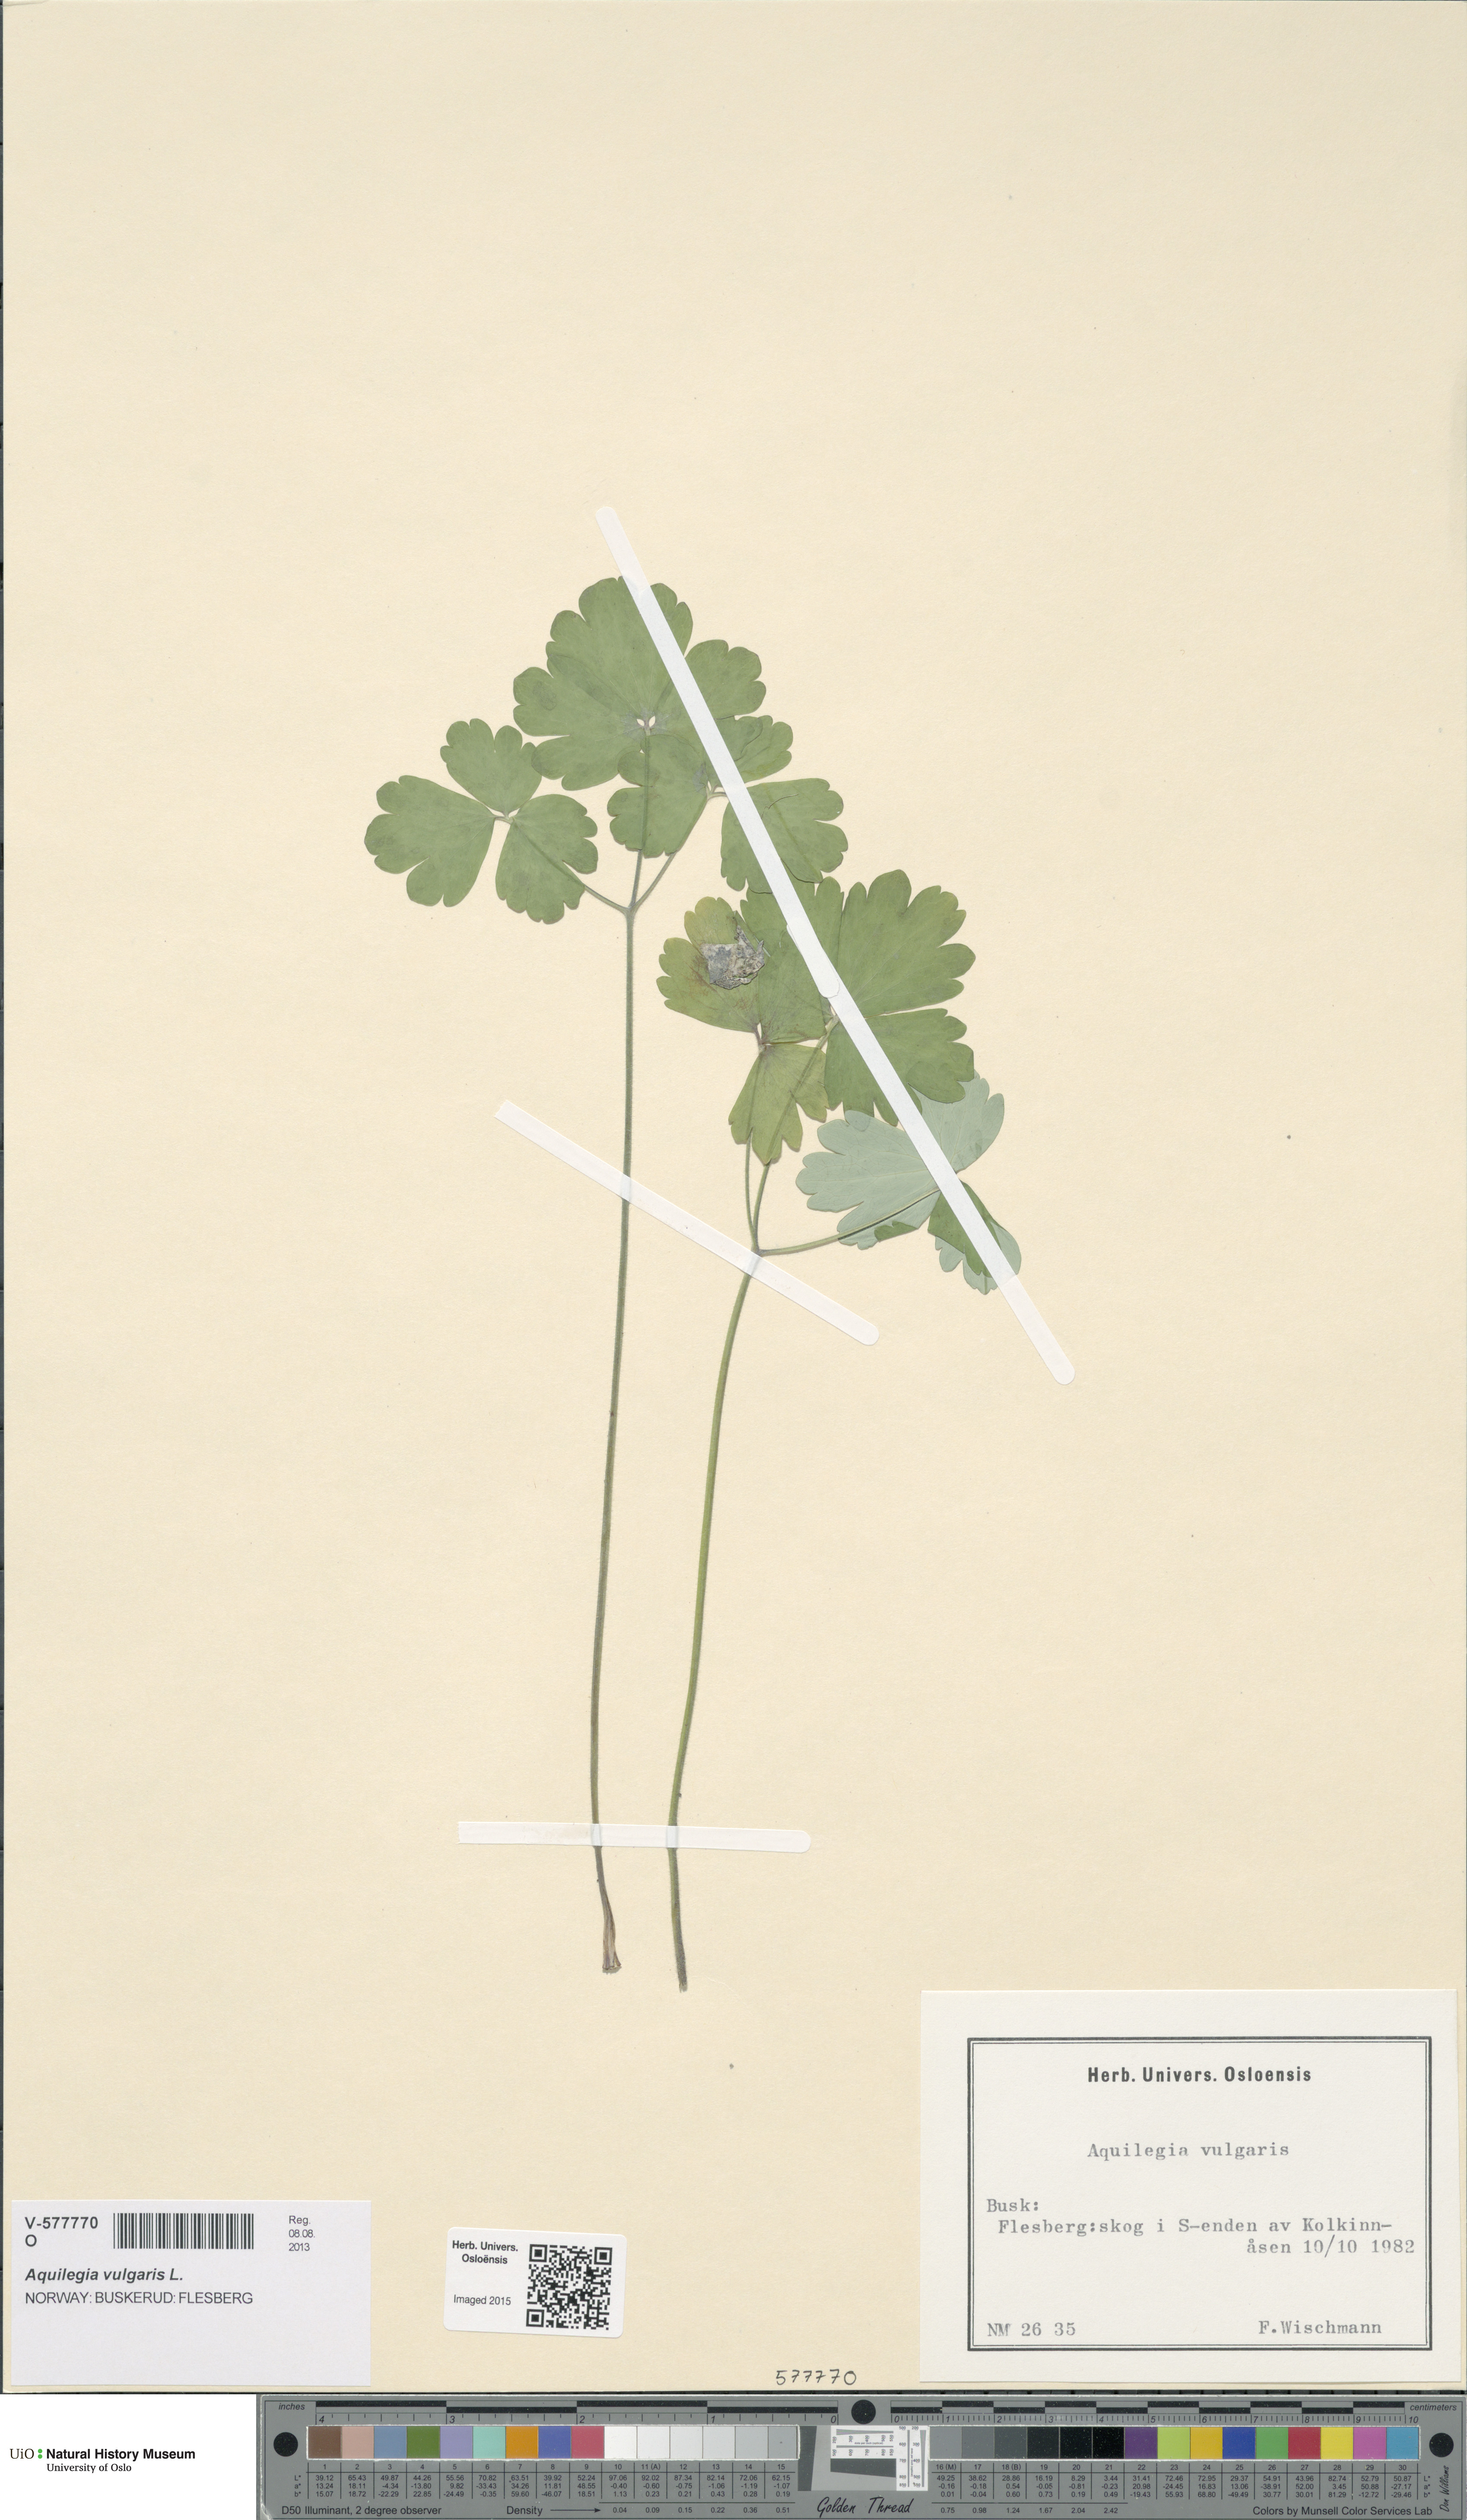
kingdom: Plantae
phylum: Tracheophyta
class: Magnoliopsida
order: Ranunculales
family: Ranunculaceae
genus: Aquilegia
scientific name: Aquilegia vulgaris
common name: Columbine
